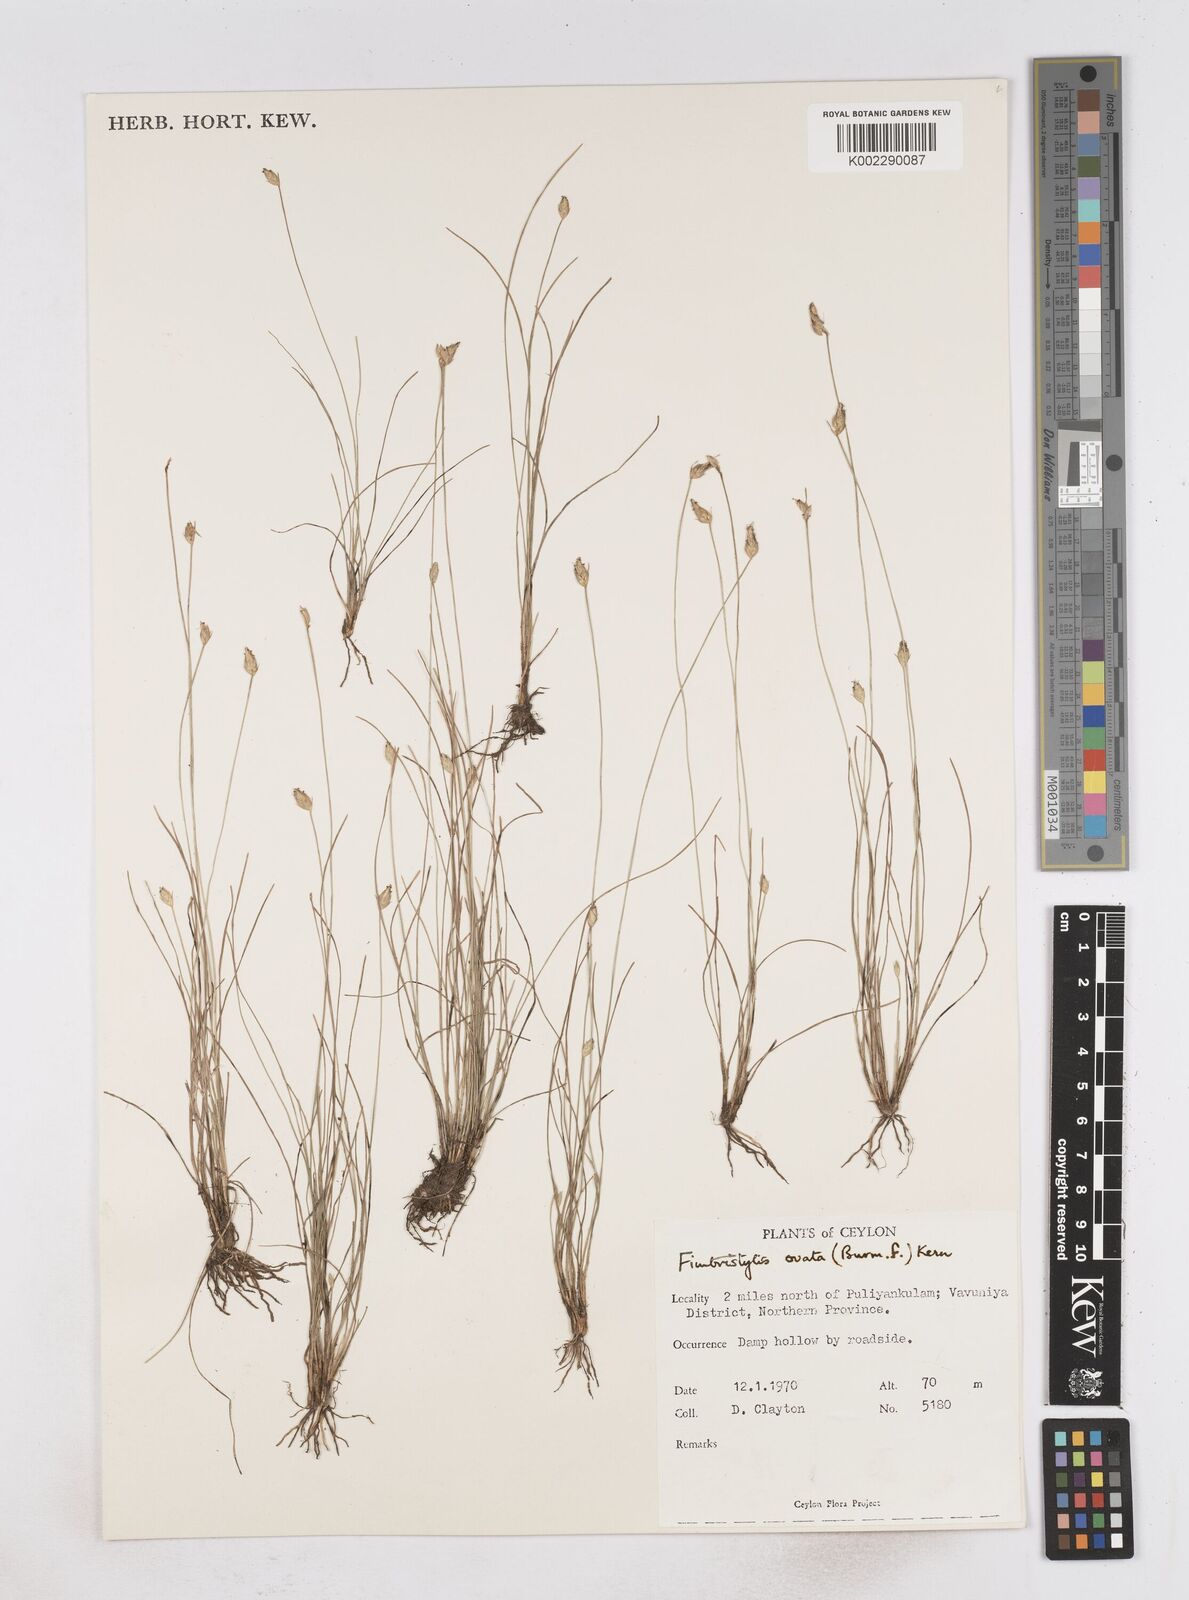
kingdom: Plantae
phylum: Tracheophyta
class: Liliopsida
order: Poales
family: Cyperaceae
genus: Abildgaardia
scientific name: Abildgaardia ovata
